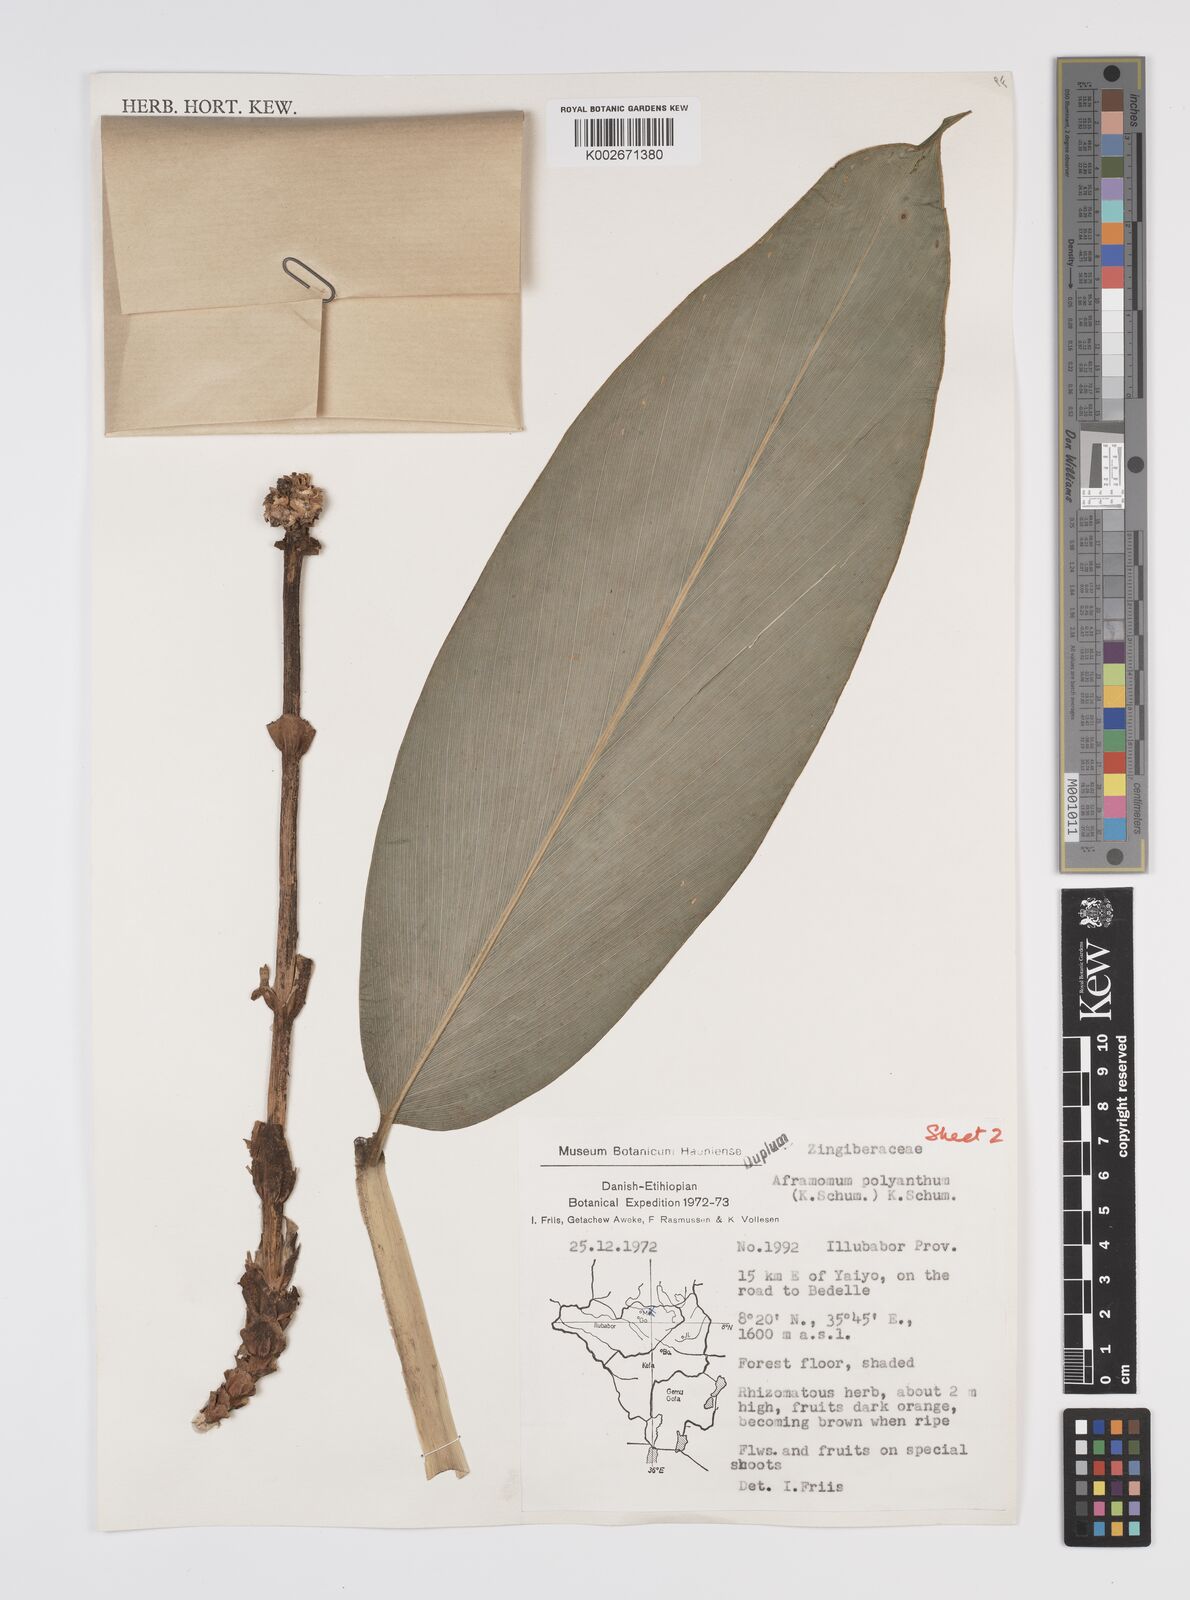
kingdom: Plantae
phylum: Tracheophyta
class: Liliopsida
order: Zingiberales
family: Zingiberaceae
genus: Aframomum
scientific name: Aframomum zambesiacum
